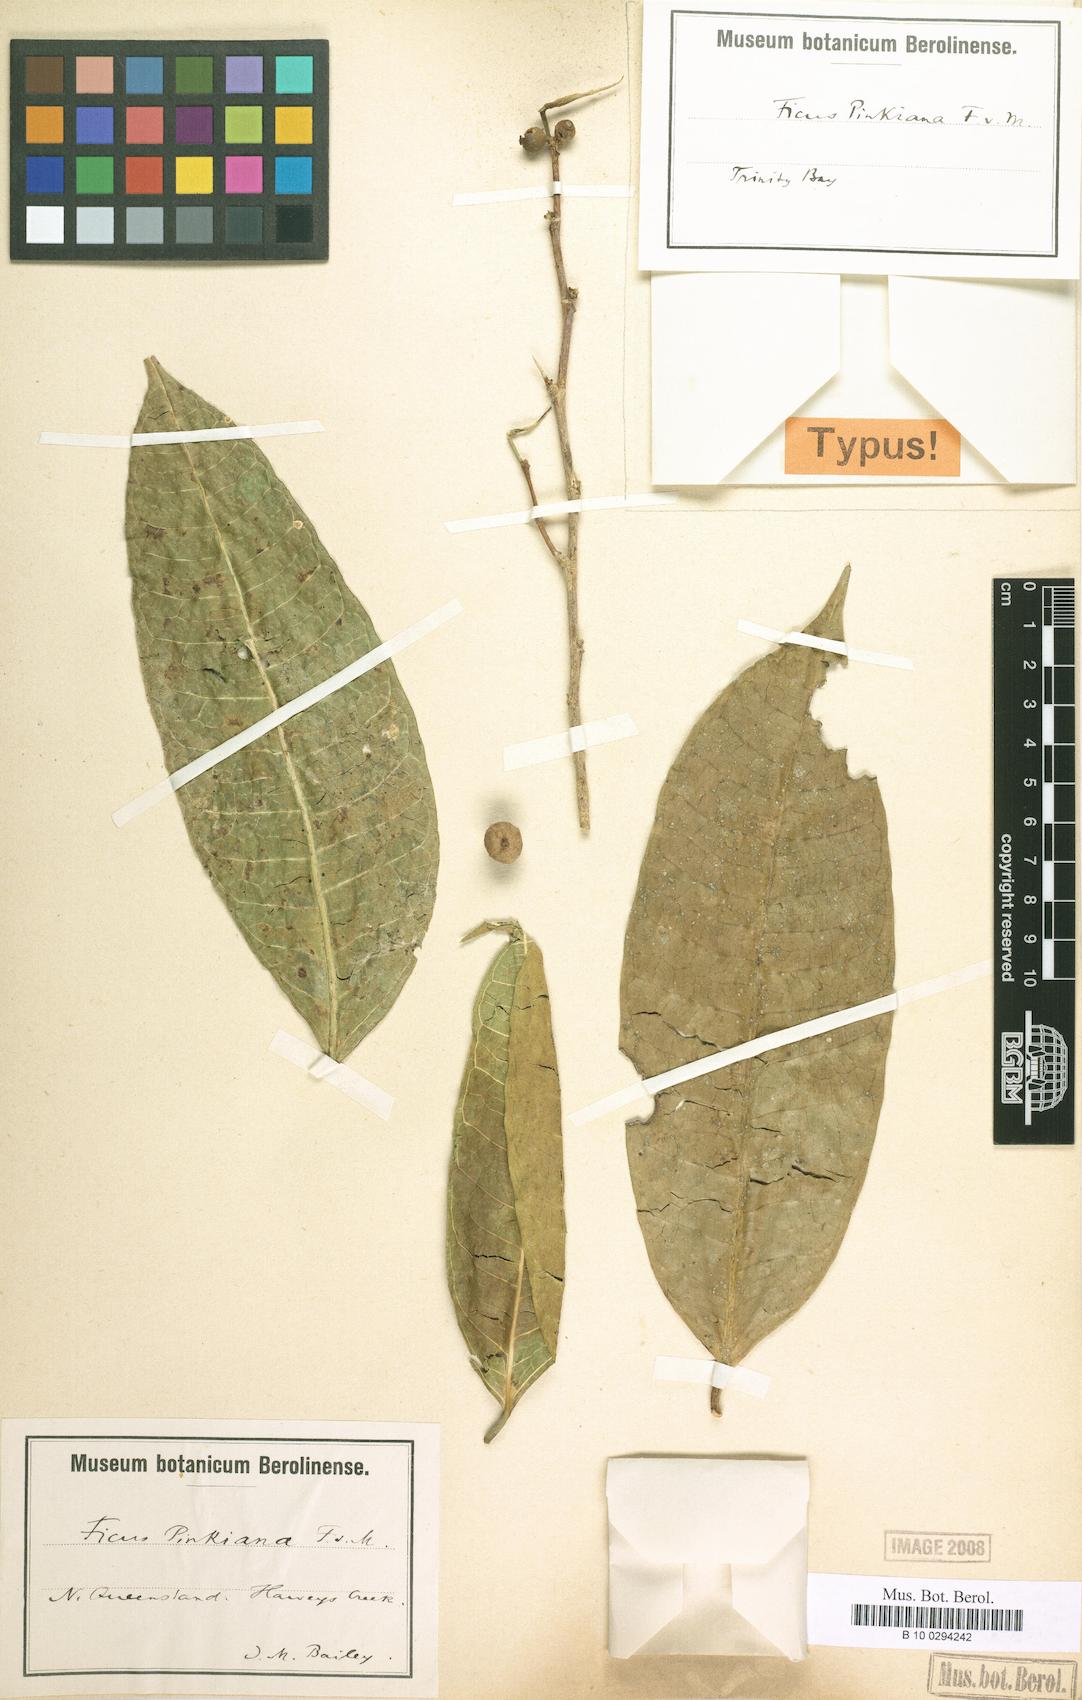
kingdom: Plantae
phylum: Tracheophyta
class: Magnoliopsida
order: Rosales
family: Moraceae
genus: Ficus
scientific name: Ficus virgata
